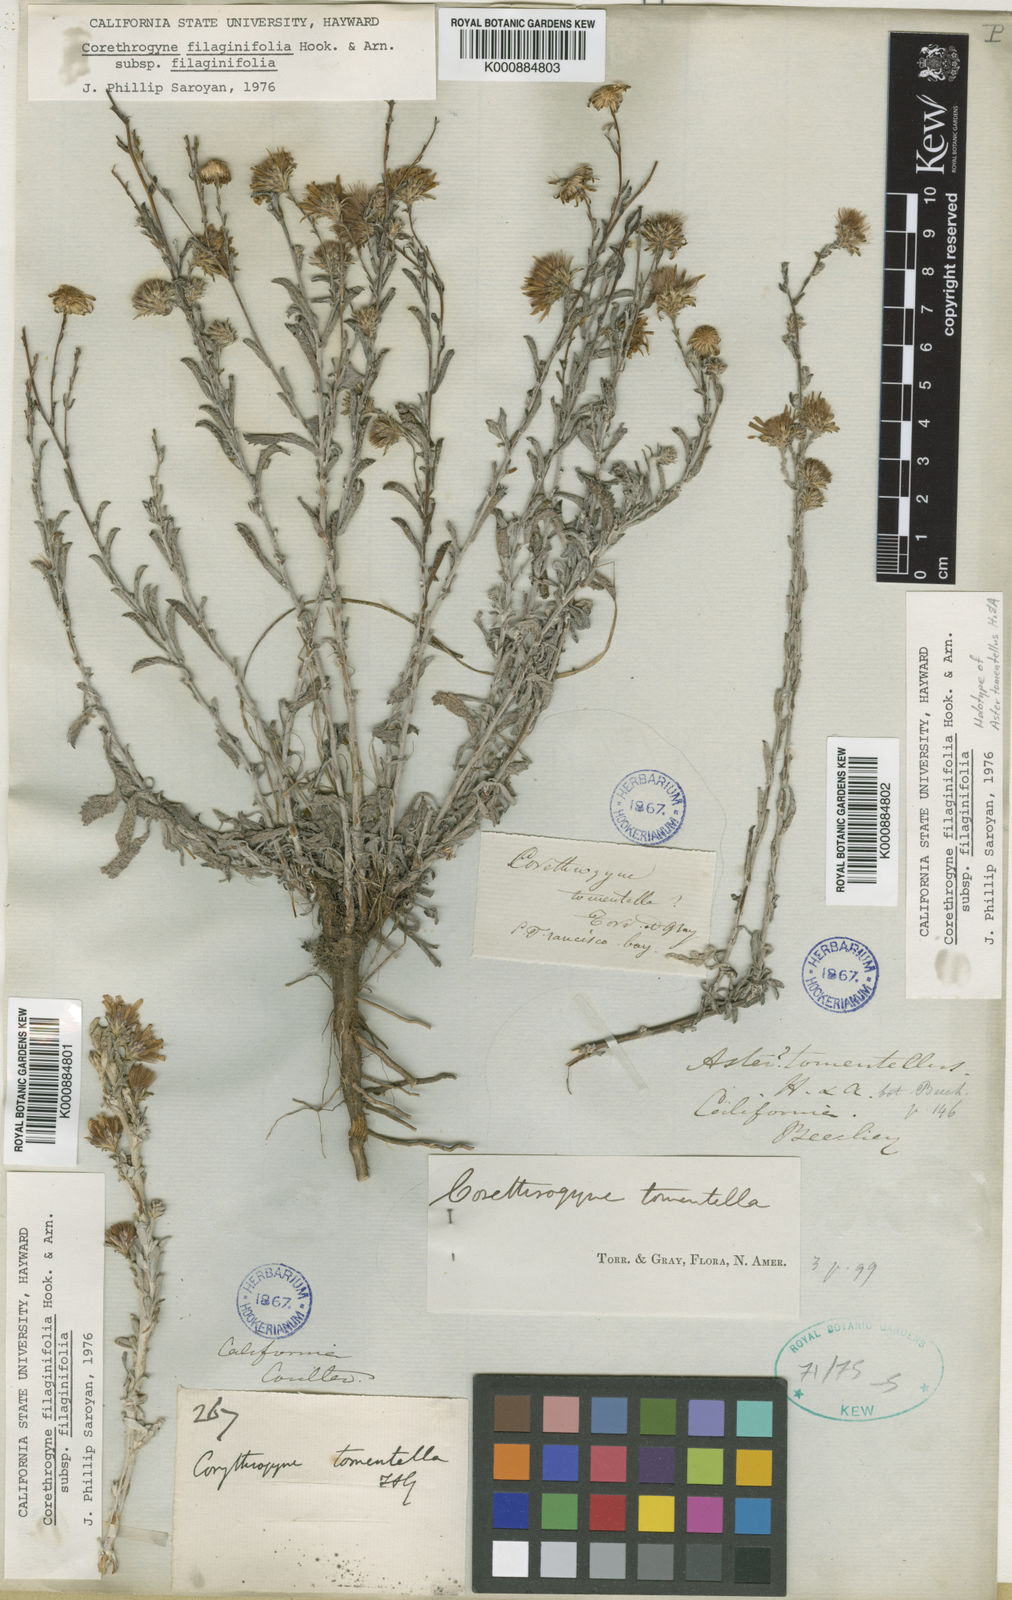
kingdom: Plantae
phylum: Tracheophyta
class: Magnoliopsida
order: Asterales
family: Asteraceae
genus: Corethrogyne
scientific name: Corethrogyne filaginifolia
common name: Sand-aster
